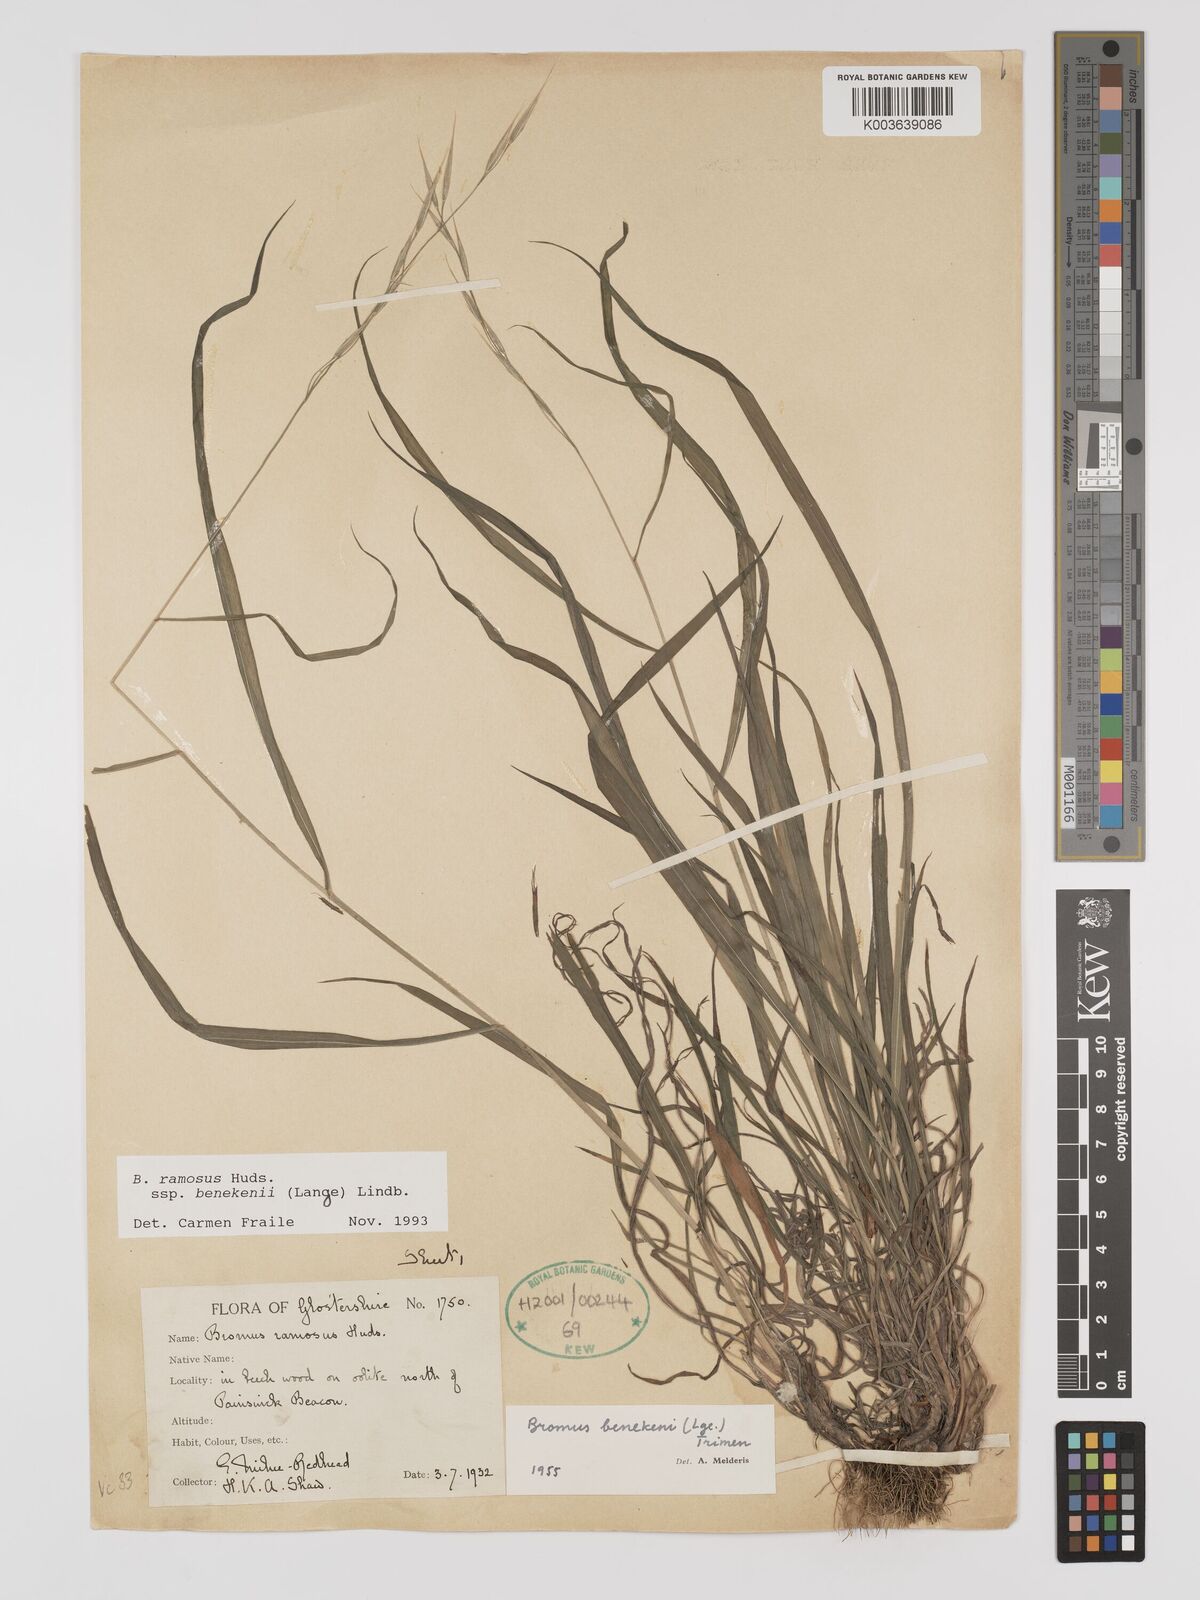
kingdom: Plantae
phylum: Tracheophyta
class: Liliopsida
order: Poales
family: Poaceae
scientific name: Poaceae
